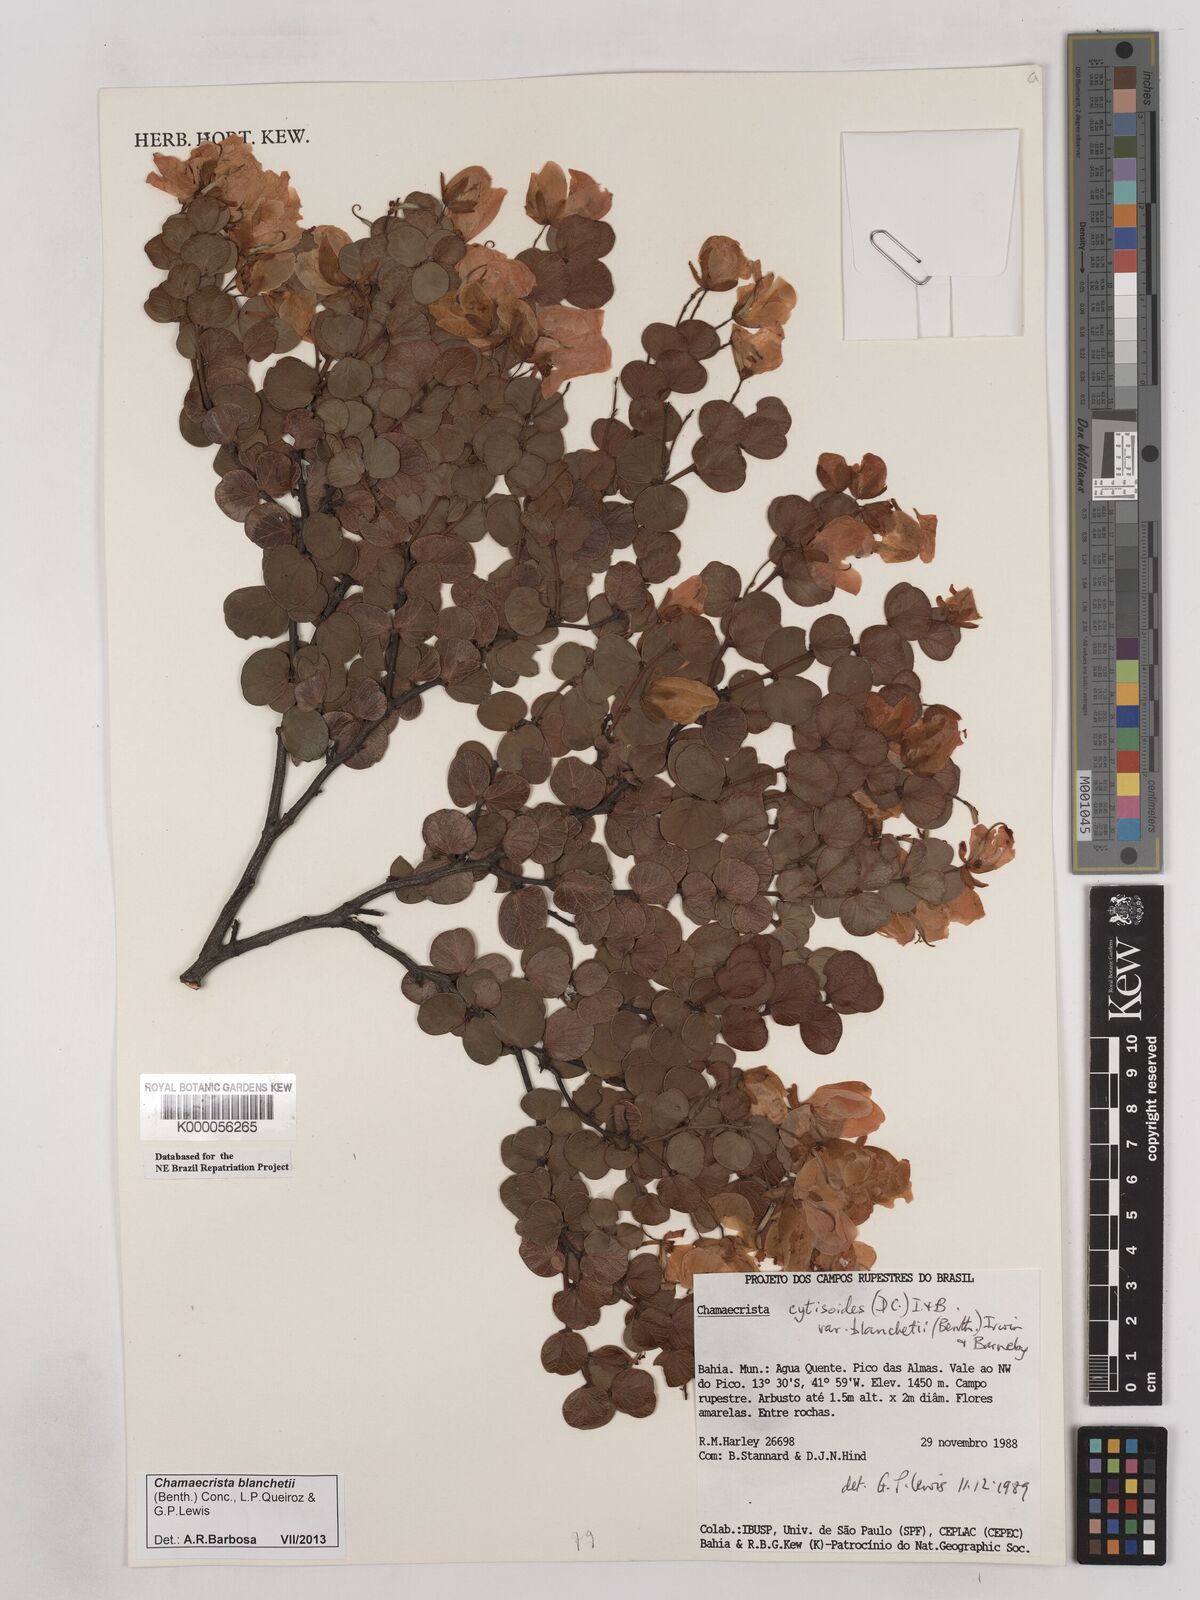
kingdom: Plantae
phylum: Tracheophyta
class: Magnoliopsida
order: Fabales
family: Fabaceae
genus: Chamaecrista
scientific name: Chamaecrista cytisoides
